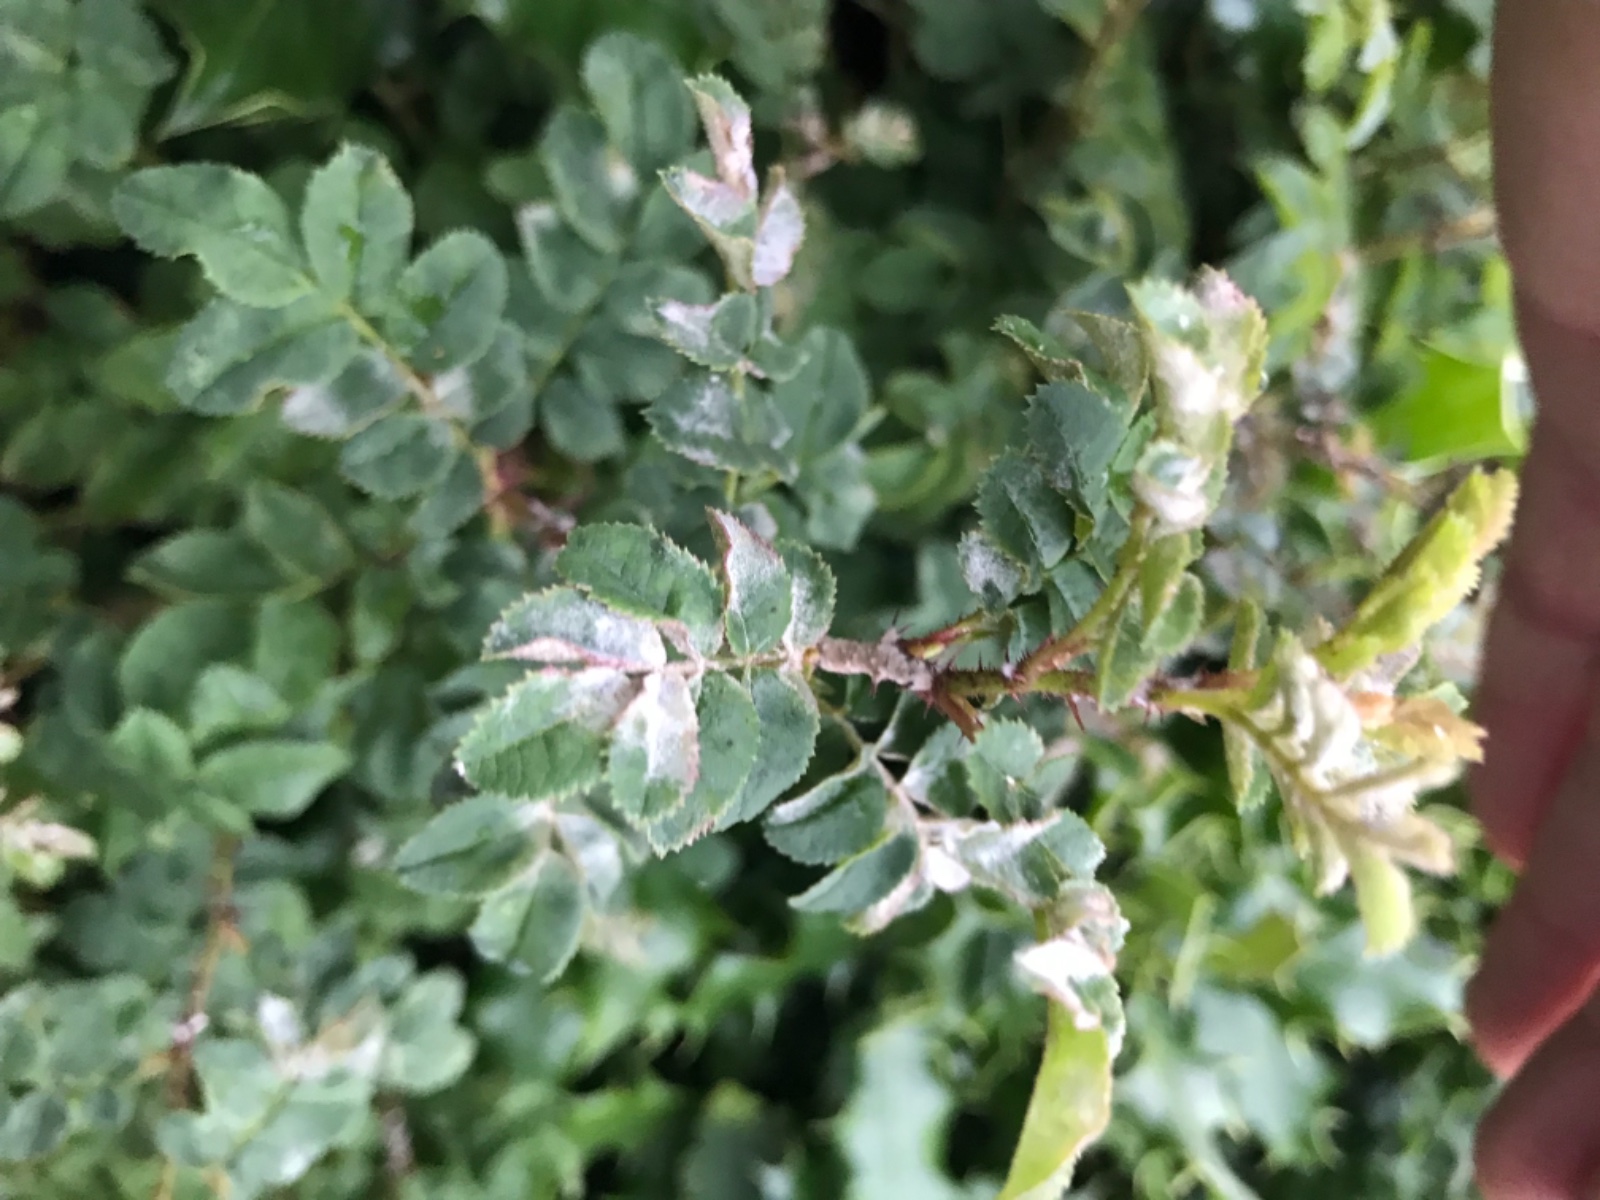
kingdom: Fungi
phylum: Ascomycota
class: Leotiomycetes
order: Helotiales
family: Erysiphaceae
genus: Podosphaera
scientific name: Podosphaera pannosa
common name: Rose mildew
